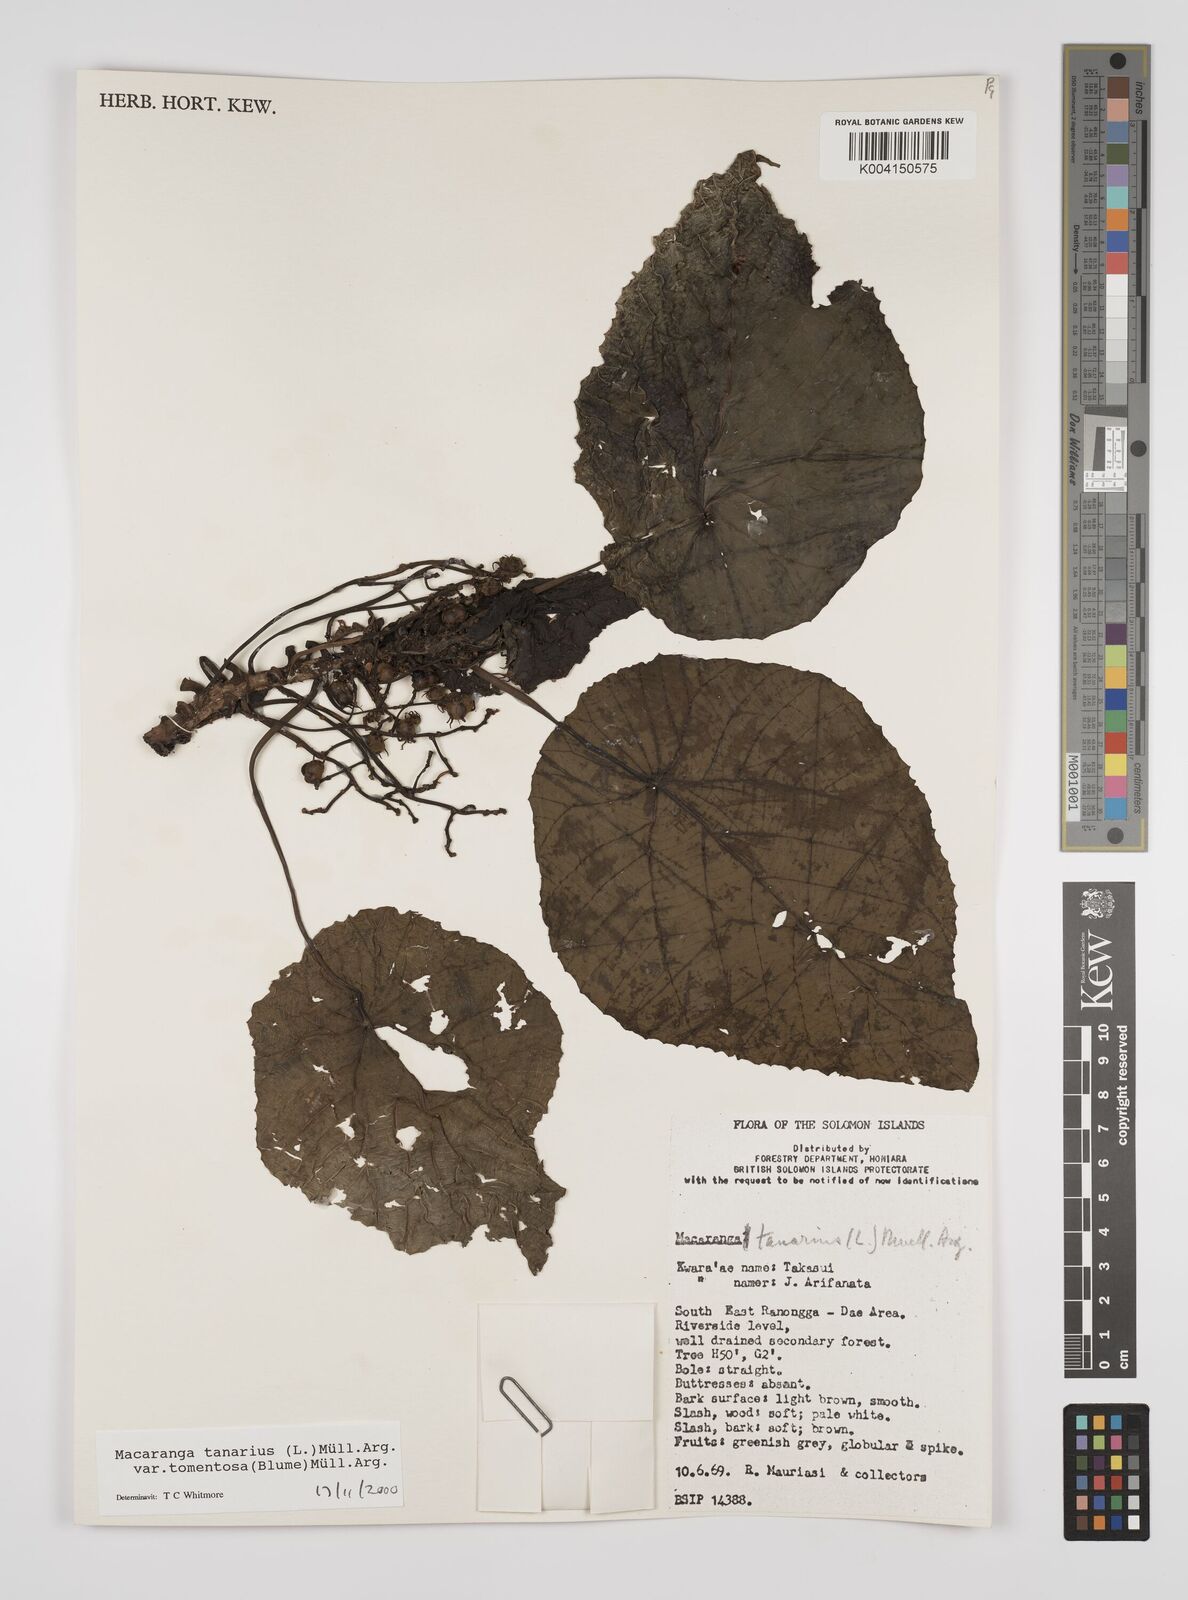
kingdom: Plantae
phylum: Tracheophyta
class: Magnoliopsida
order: Malpighiales
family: Euphorbiaceae
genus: Macaranga
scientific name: Macaranga tanarius
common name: Parasol leaf tree
